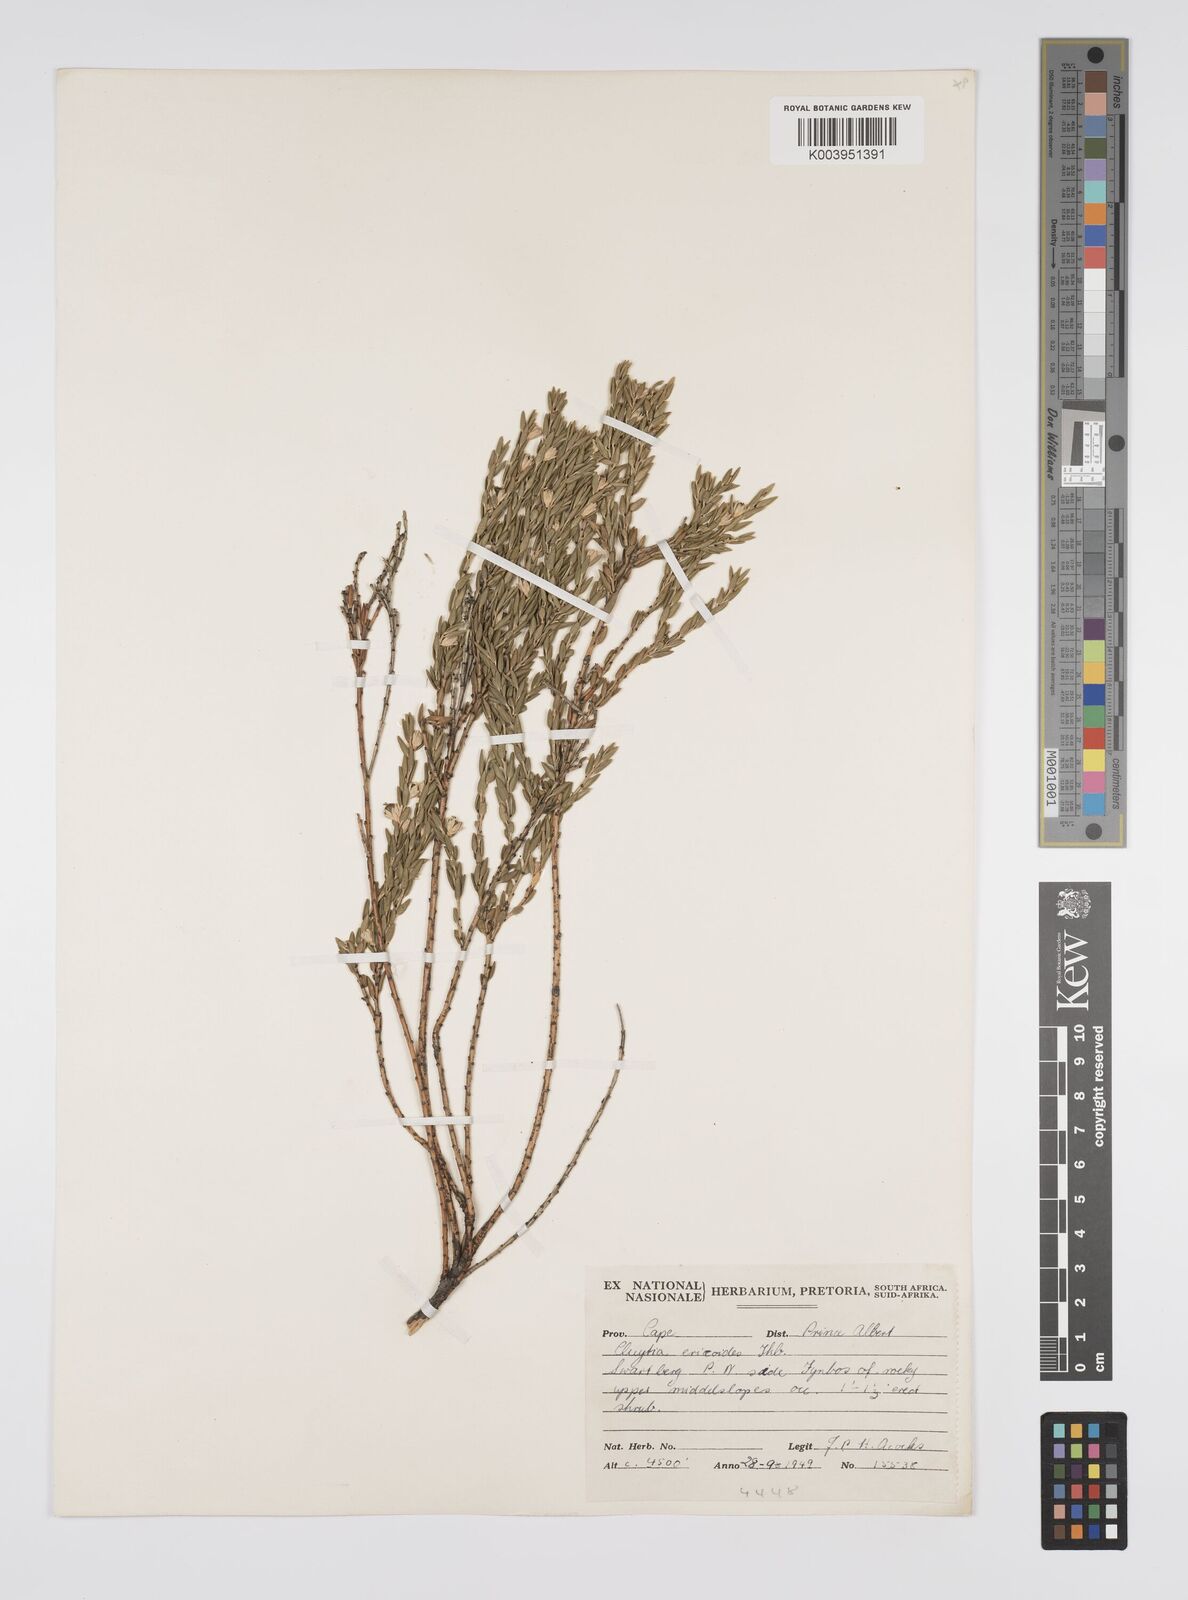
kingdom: Plantae
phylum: Tracheophyta
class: Magnoliopsida
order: Malpighiales
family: Peraceae
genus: Clutia
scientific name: Clutia
